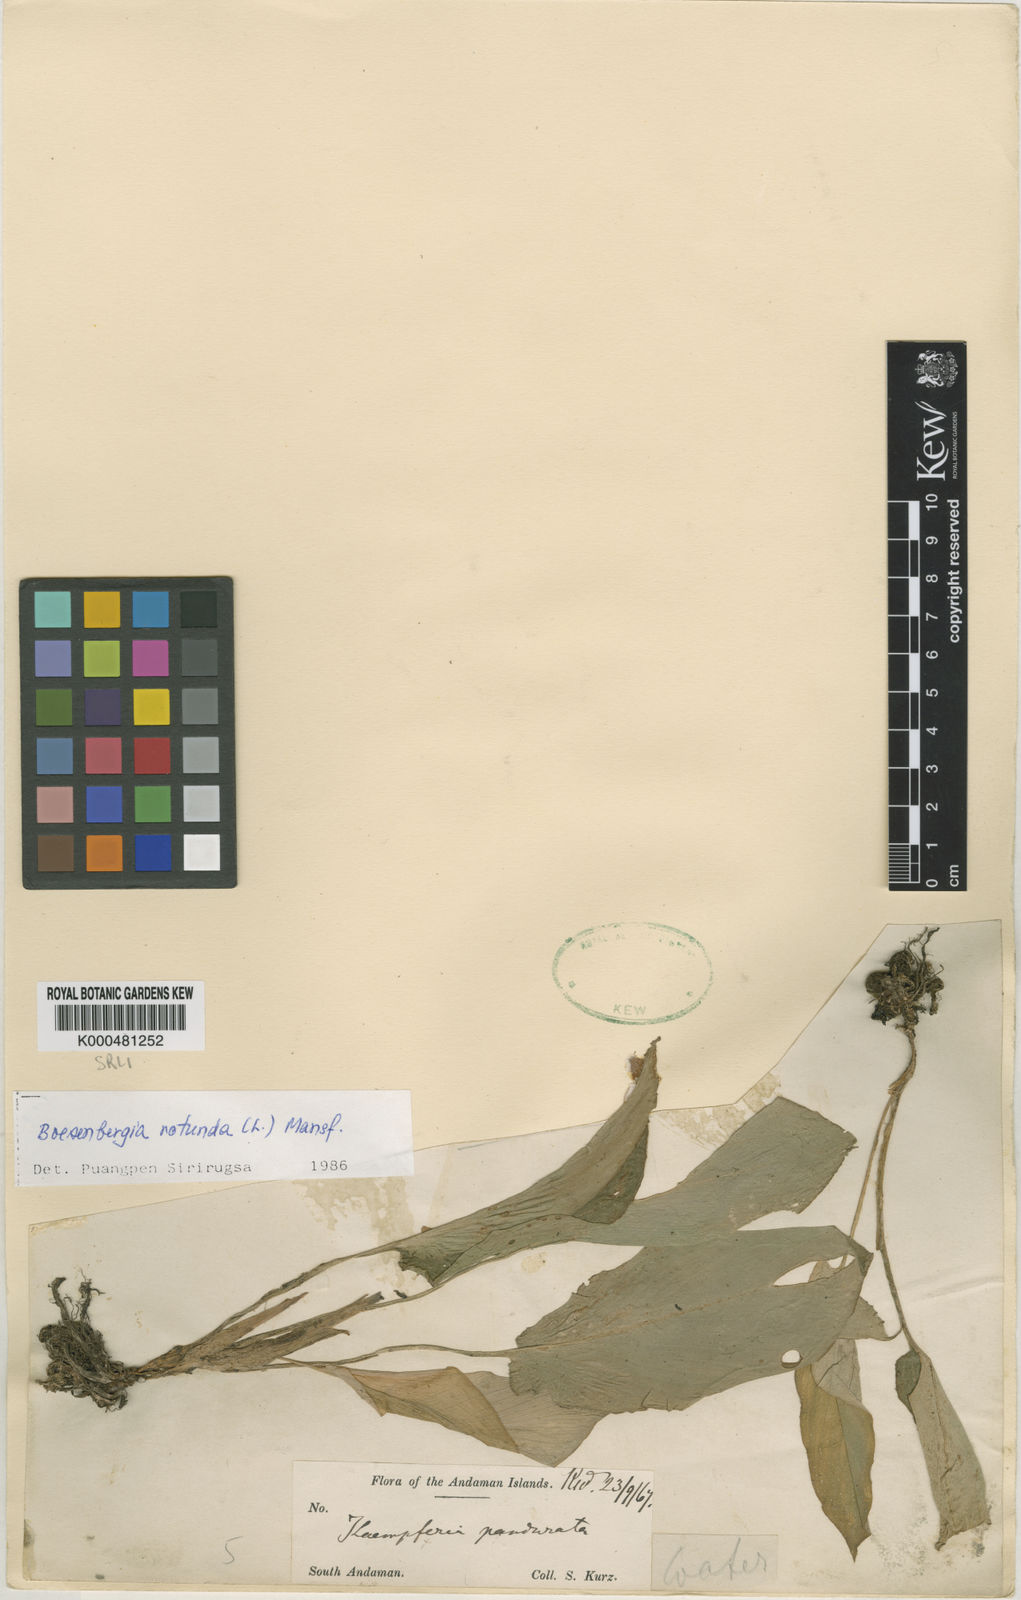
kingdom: Plantae
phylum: Tracheophyta
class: Liliopsida
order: Zingiberales
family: Zingiberaceae
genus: Boesenbergia
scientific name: Boesenbergia rotunda
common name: Chinese ginger
